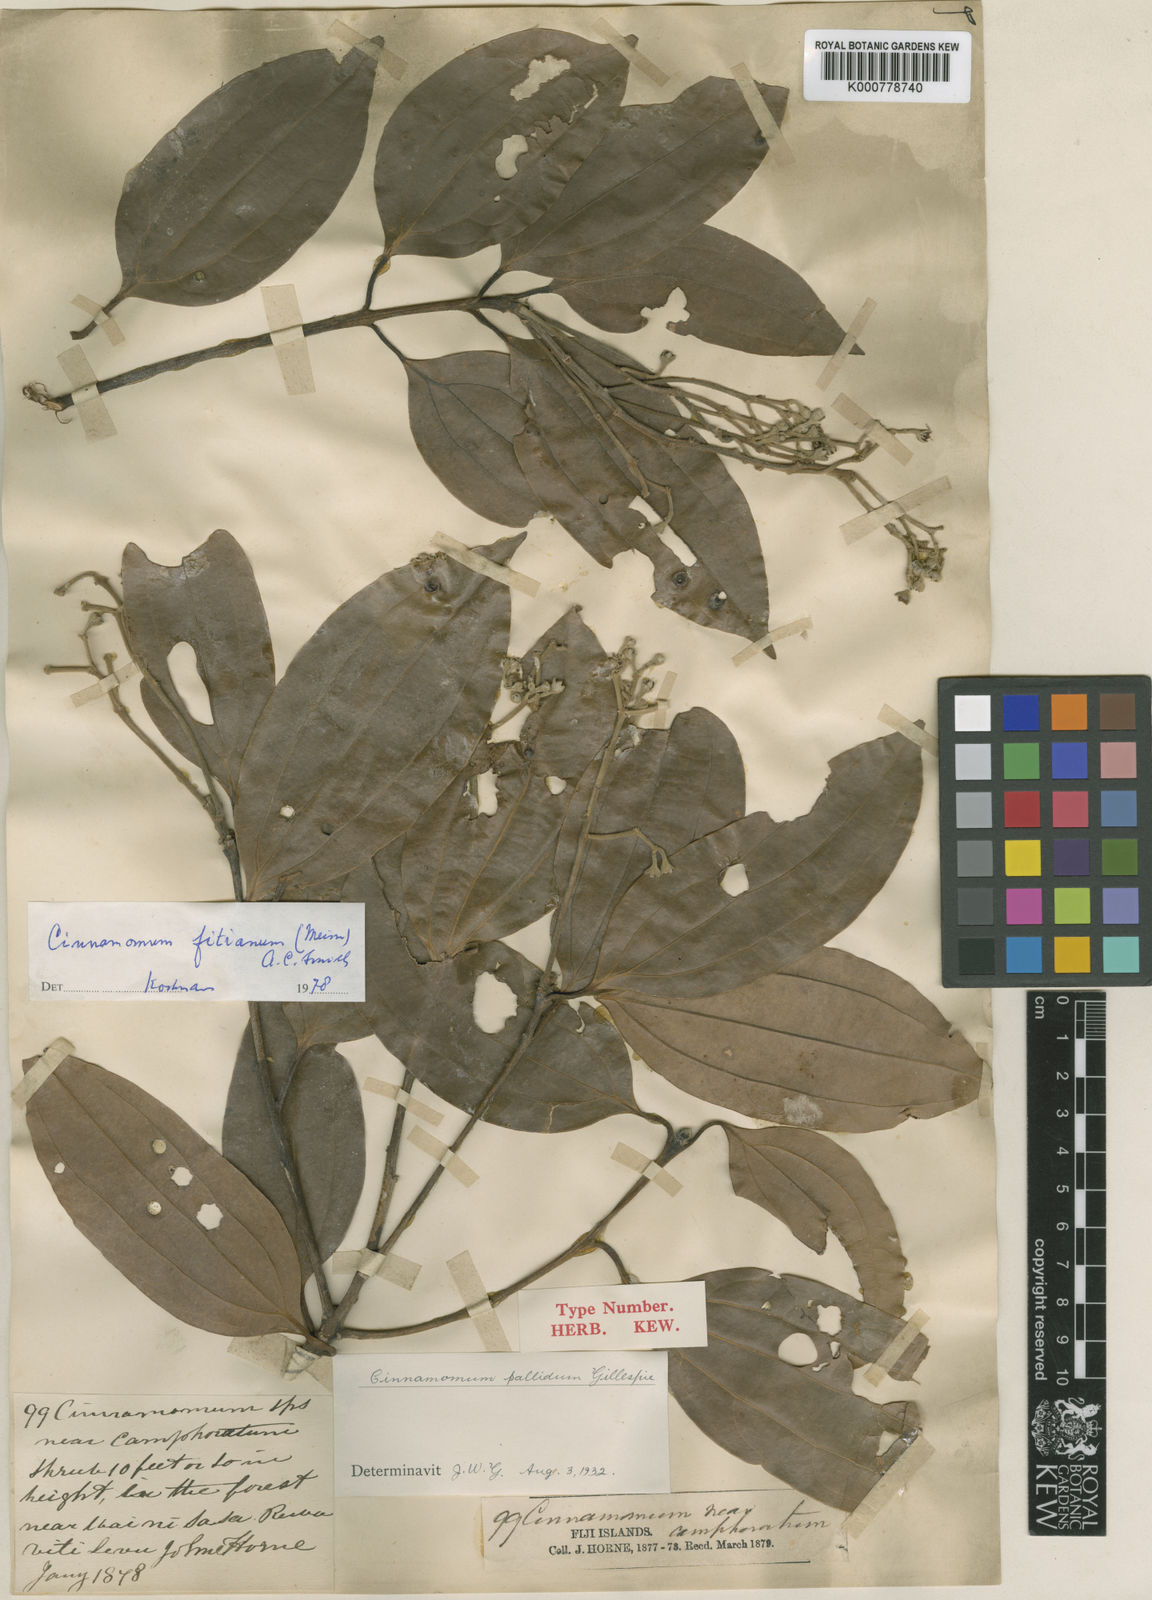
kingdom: Plantae
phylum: Tracheophyta
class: Magnoliopsida
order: Laurales
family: Lauraceae
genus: Cinnamomum
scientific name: Cinnamomum fitianum
